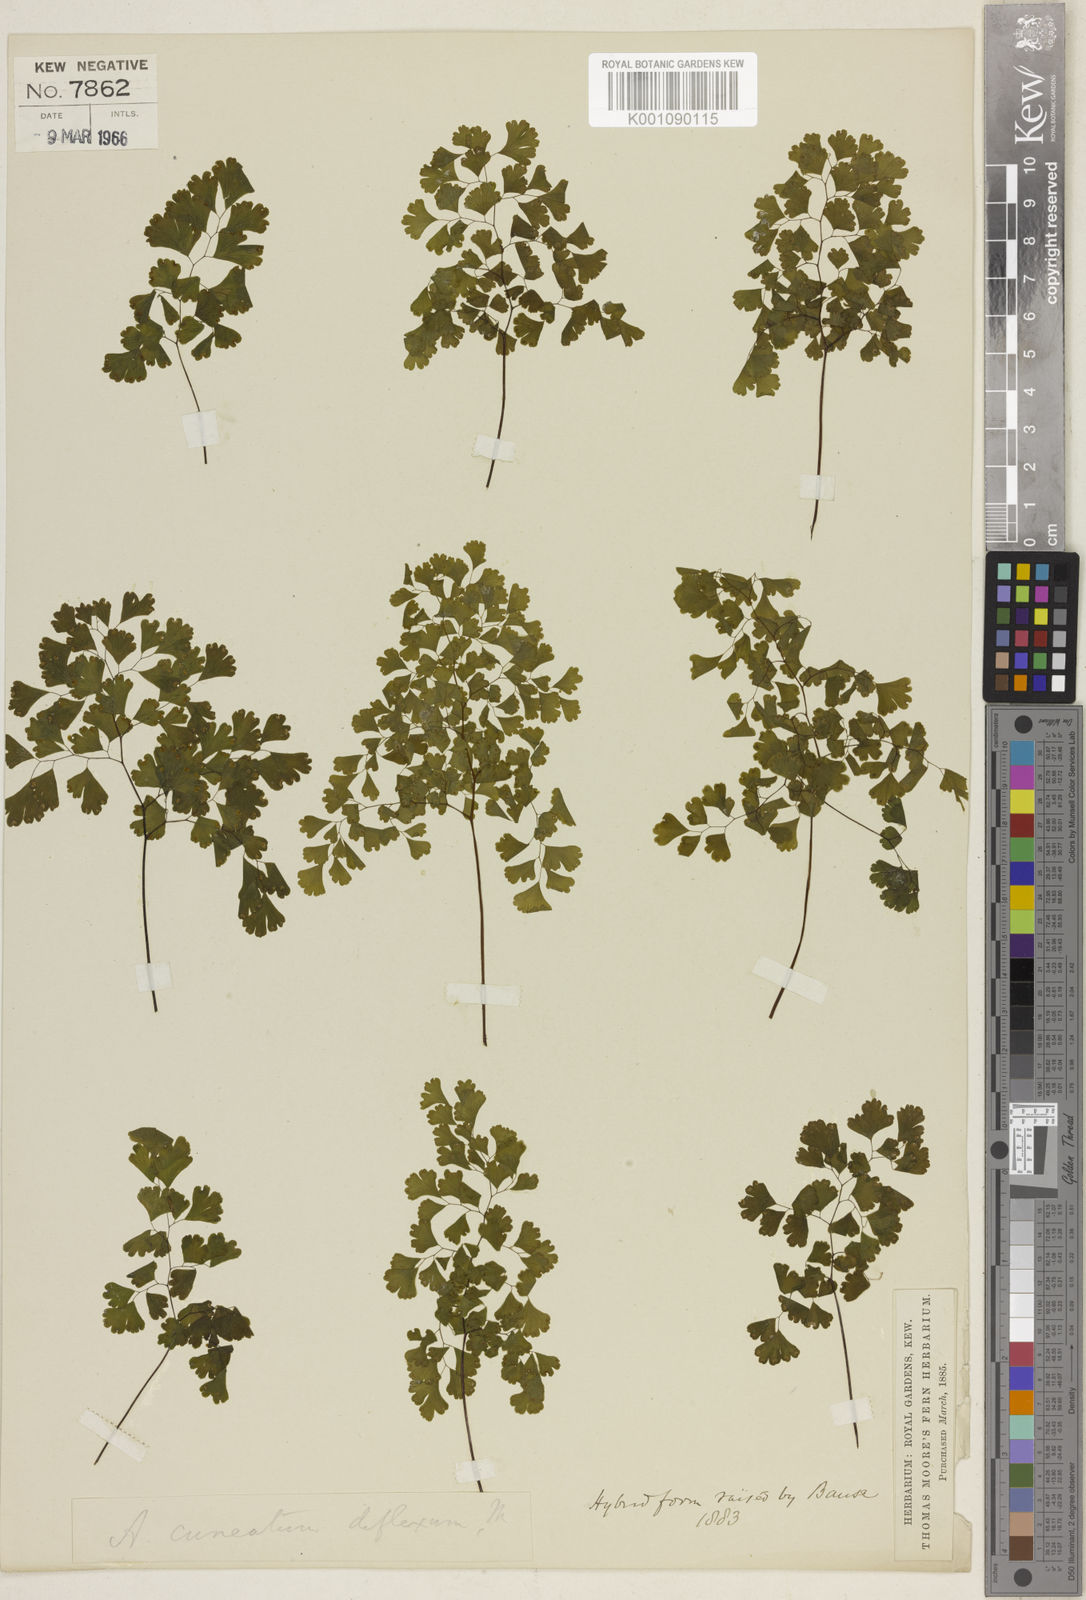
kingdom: Plantae
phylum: Tracheophyta
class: Polypodiopsida
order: Polypodiales
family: Pteridaceae
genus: Adiantum
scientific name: Adiantum raddianum
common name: Delta maidenhair fern
